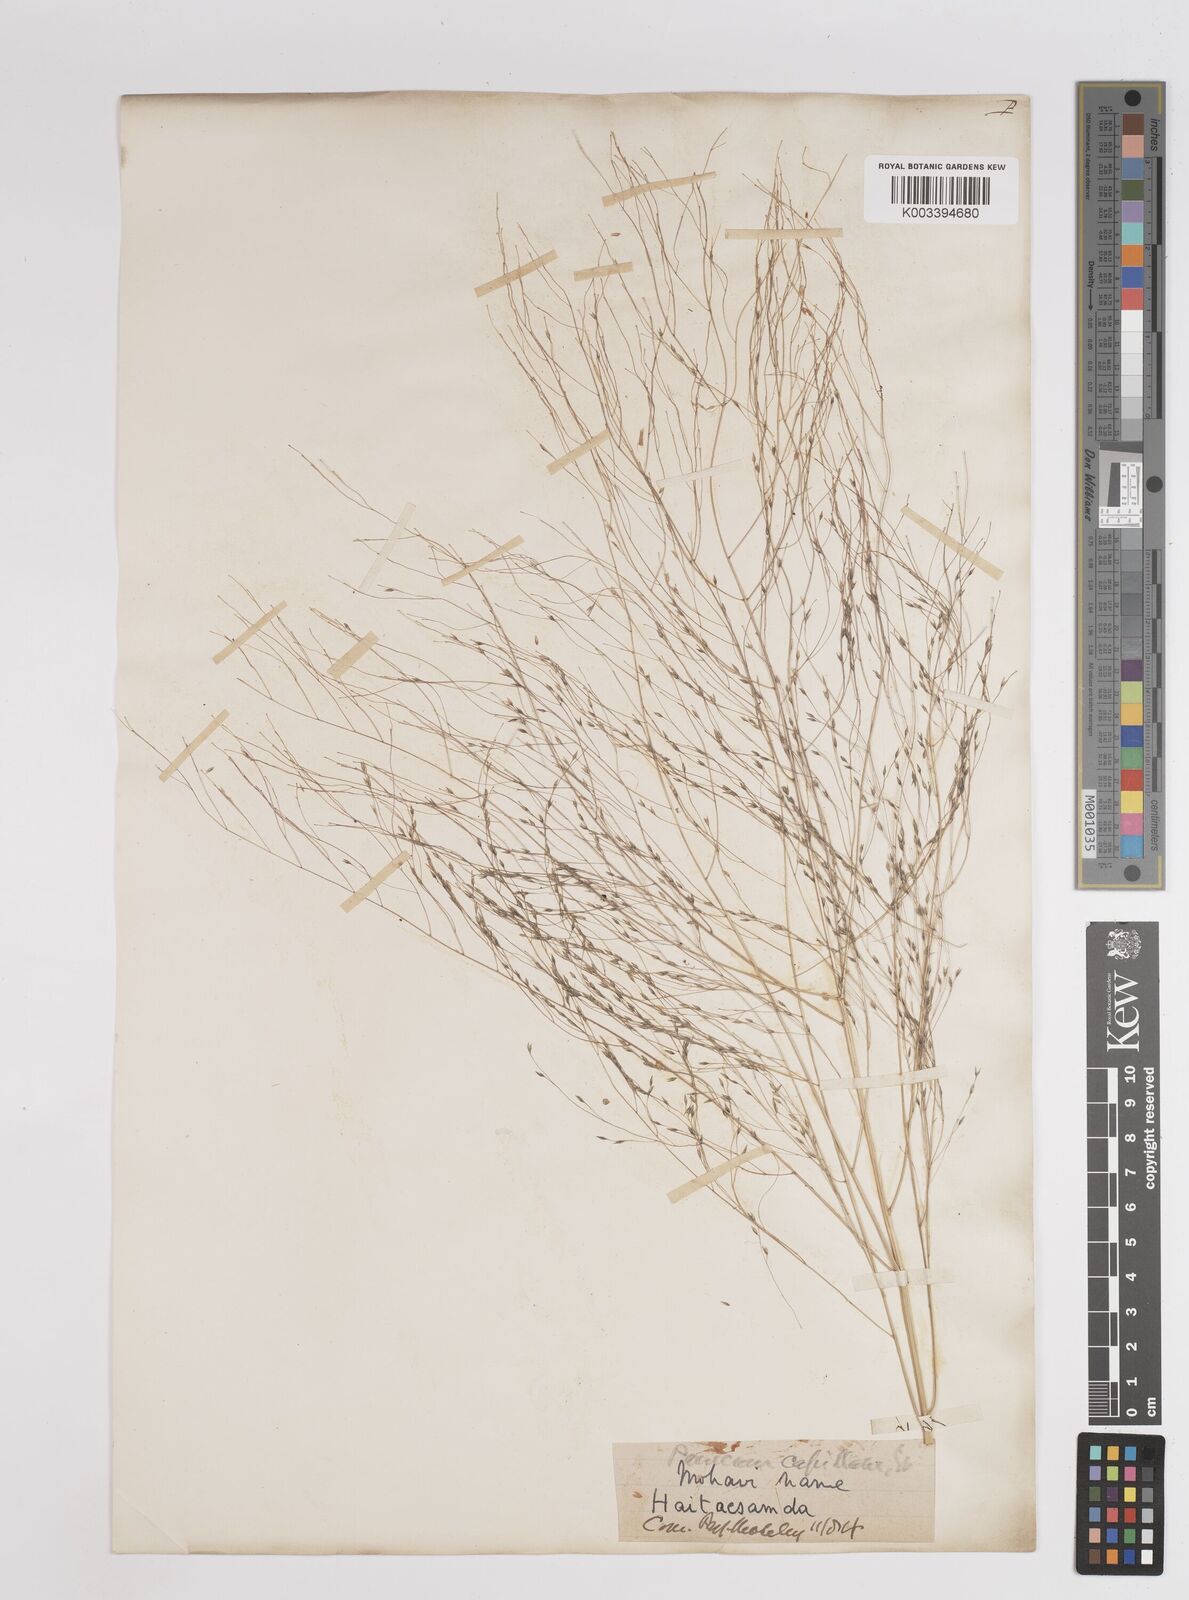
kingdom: Plantae
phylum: Tracheophyta
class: Liliopsida
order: Poales
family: Poaceae
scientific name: Poaceae
